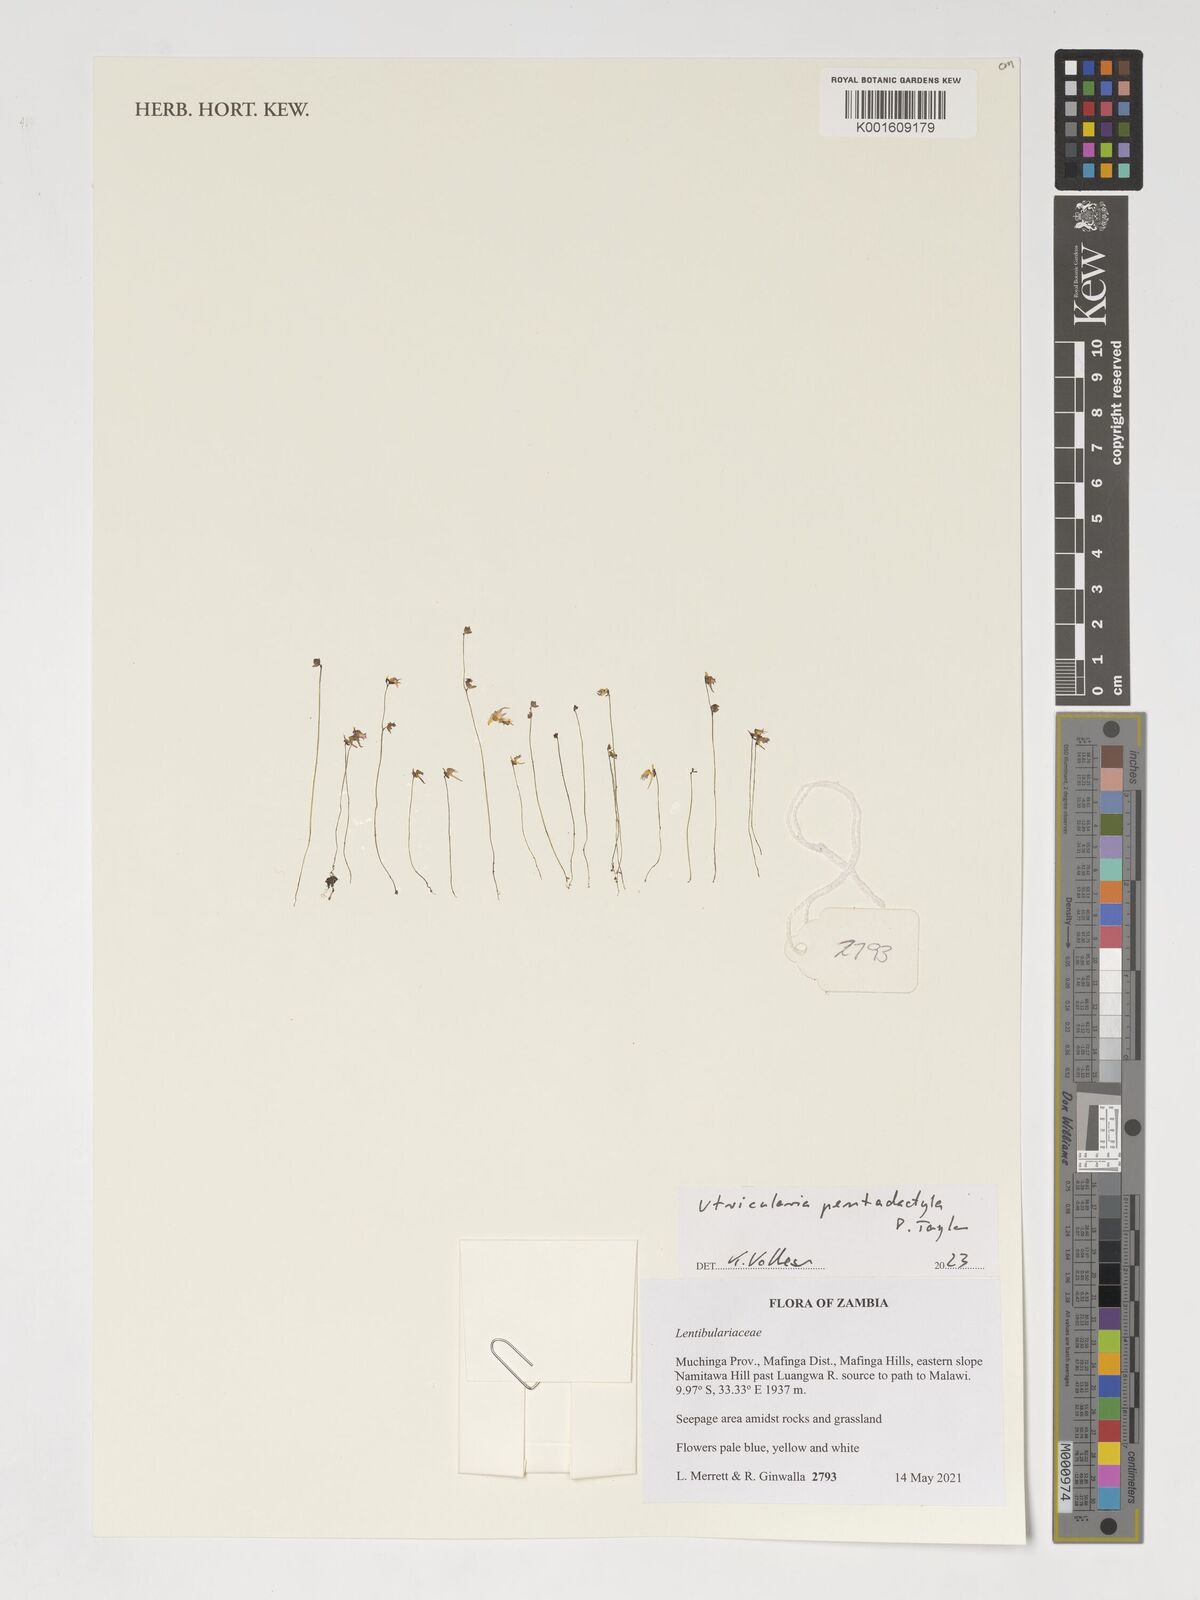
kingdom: Plantae
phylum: Tracheophyta
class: Magnoliopsida
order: Lamiales
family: Lentibulariaceae
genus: Utricularia
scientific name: Utricularia pentadactyla
